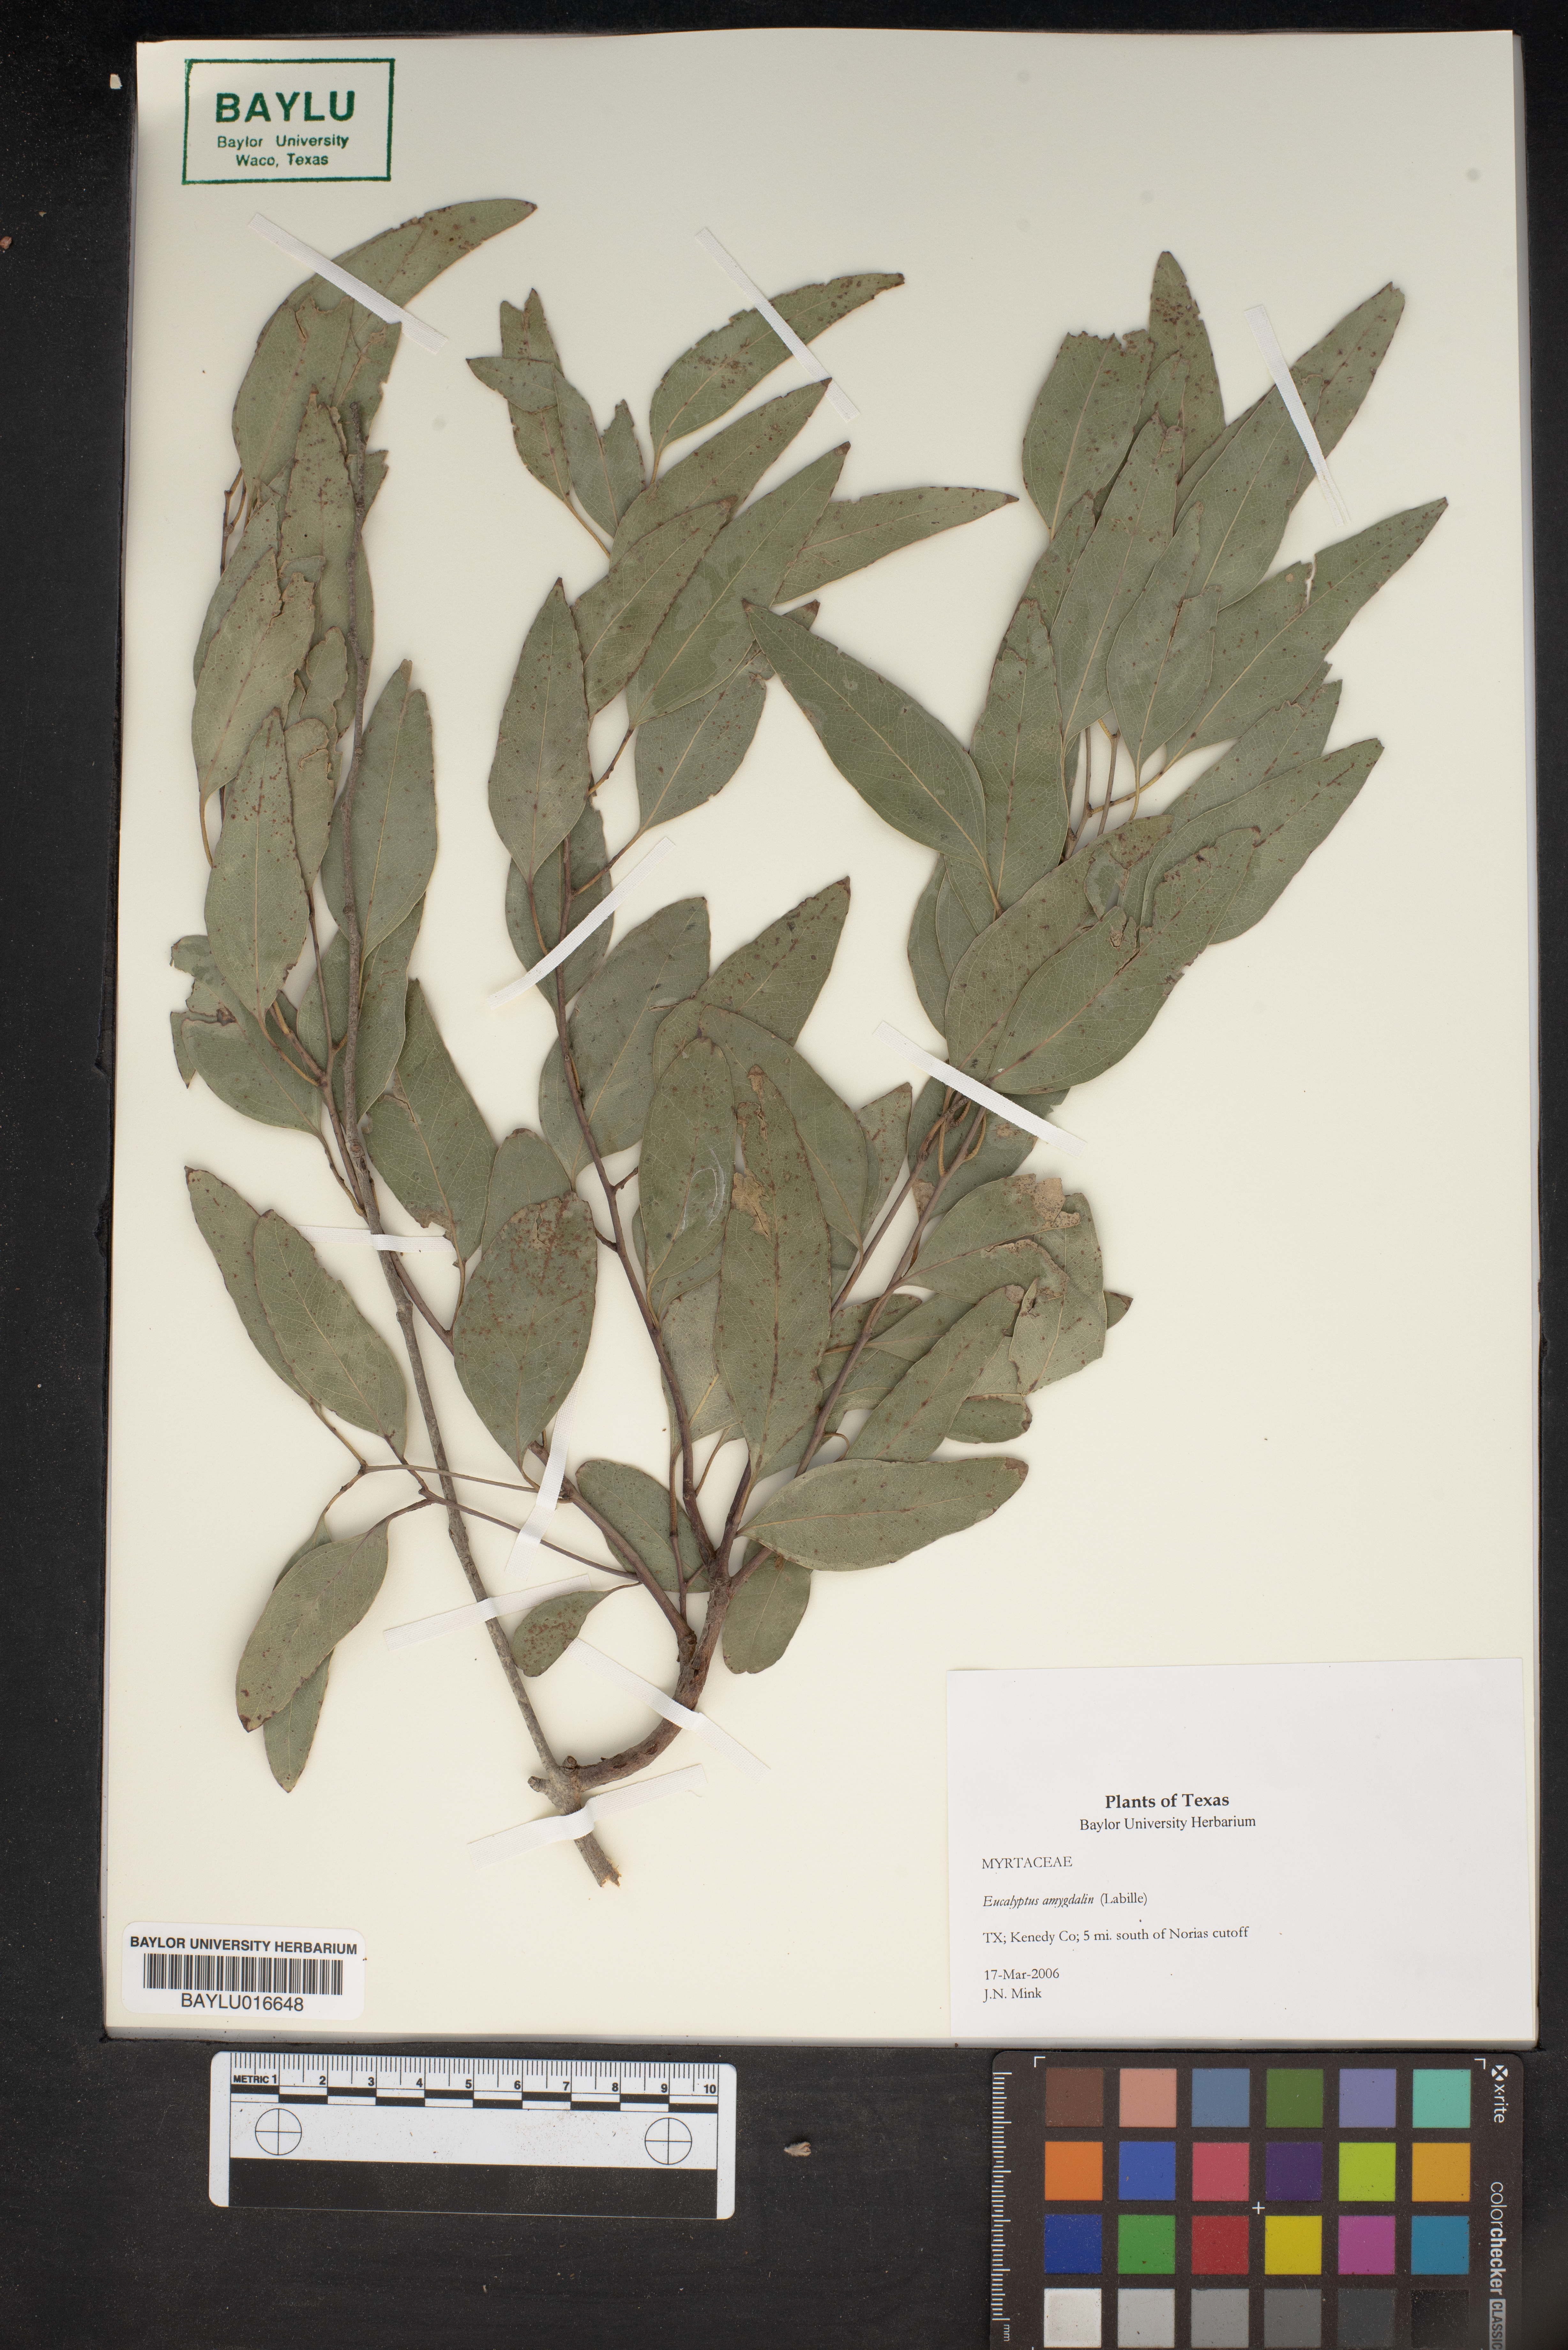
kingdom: Plantae
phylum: Tracheophyta
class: Magnoliopsida
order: Myrtales
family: Myrtaceae
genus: Eucalyptus
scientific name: Eucalyptus amygdalina
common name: Black peppermint
